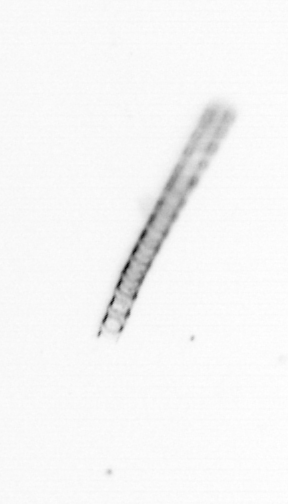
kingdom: Chromista
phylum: Ochrophyta
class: Bacillariophyceae
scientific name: Bacillariophyceae
